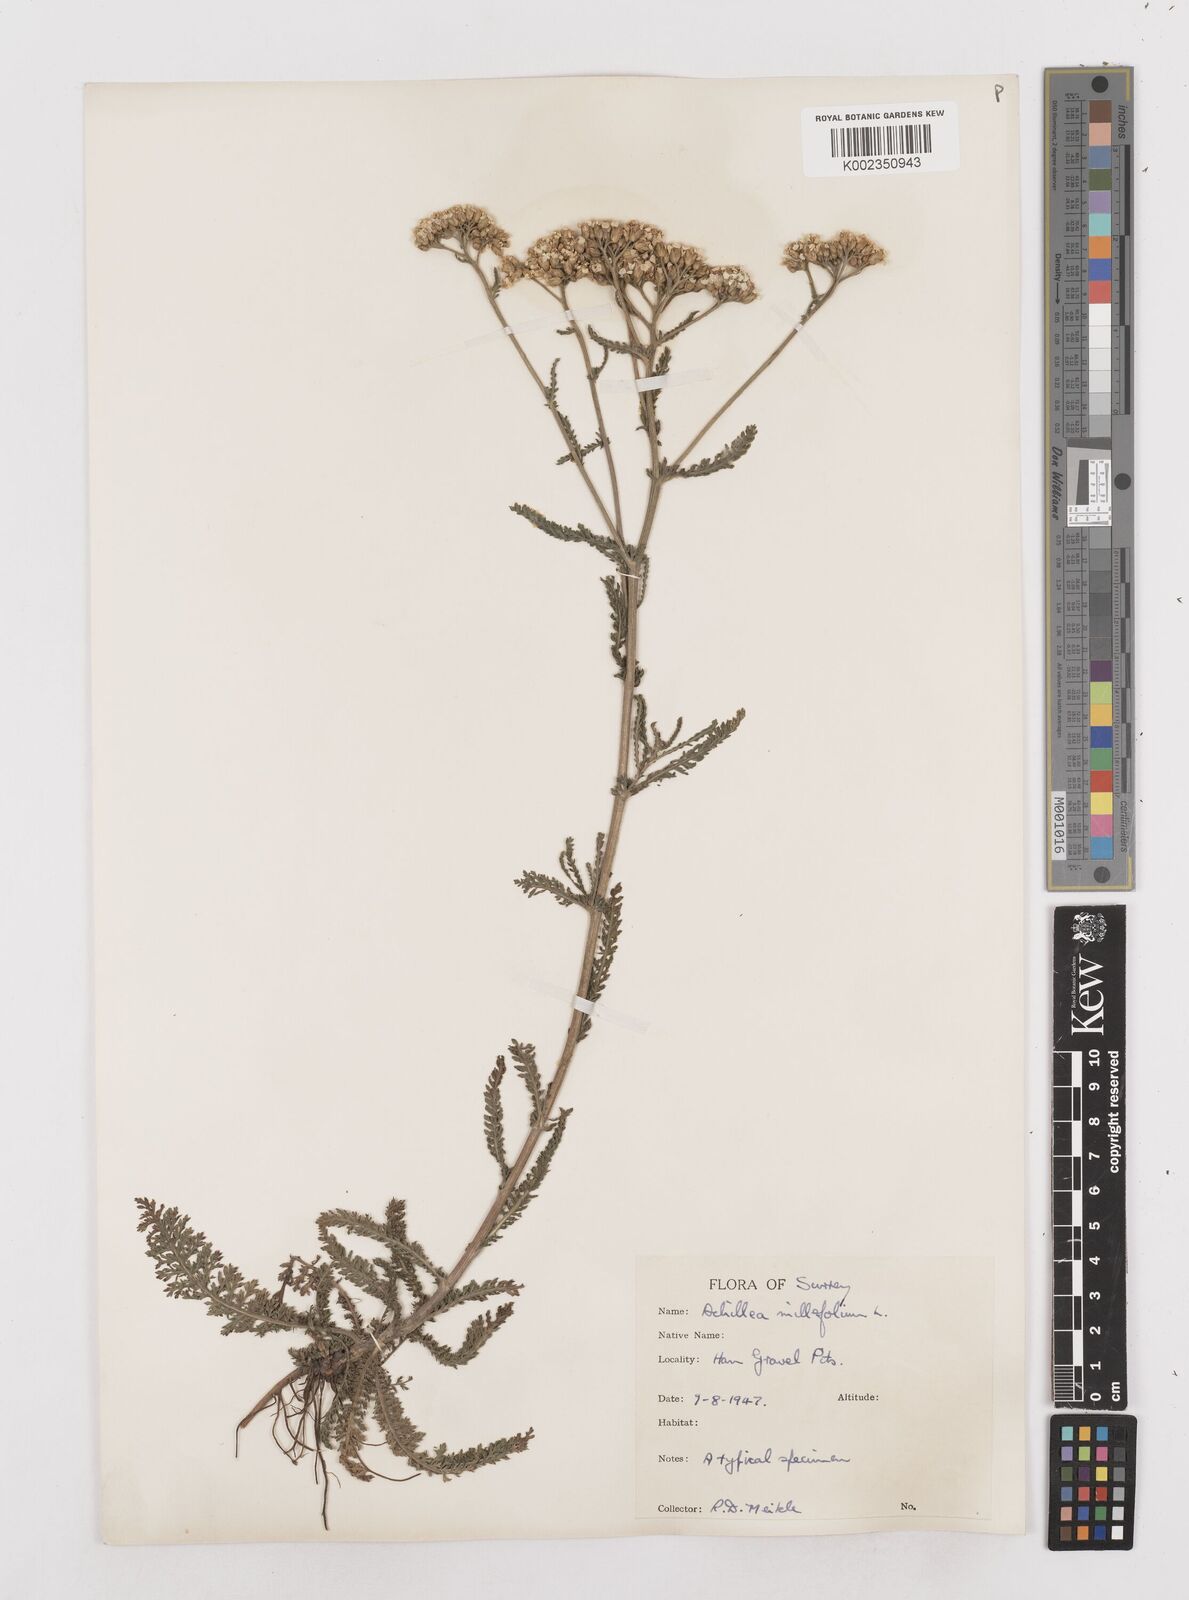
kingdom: Plantae
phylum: Tracheophyta
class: Magnoliopsida
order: Asterales
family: Asteraceae
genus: Achillea
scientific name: Achillea millefolium
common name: Yarrow
